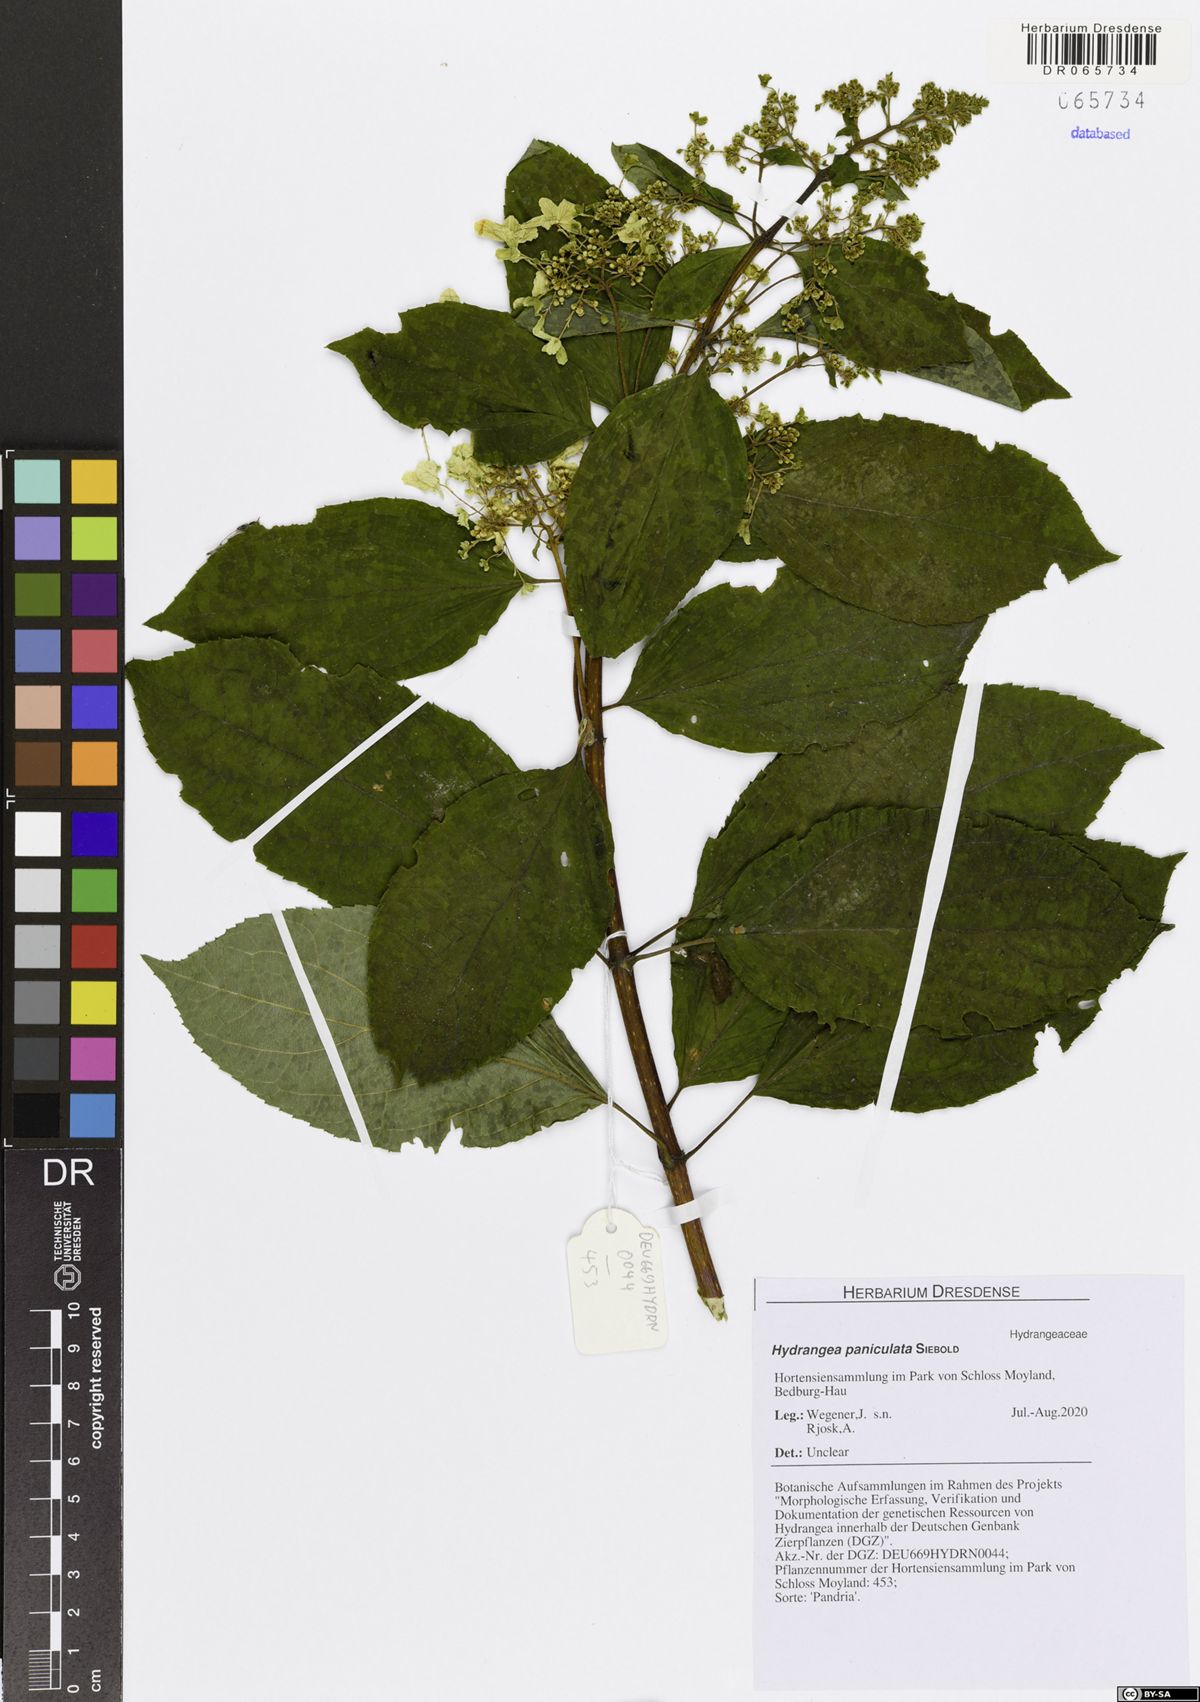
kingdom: Plantae
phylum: Tracheophyta
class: Magnoliopsida
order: Cornales
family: Hydrangeaceae
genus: Hydrangea
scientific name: Hydrangea paniculata
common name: Panicled hydrangea
